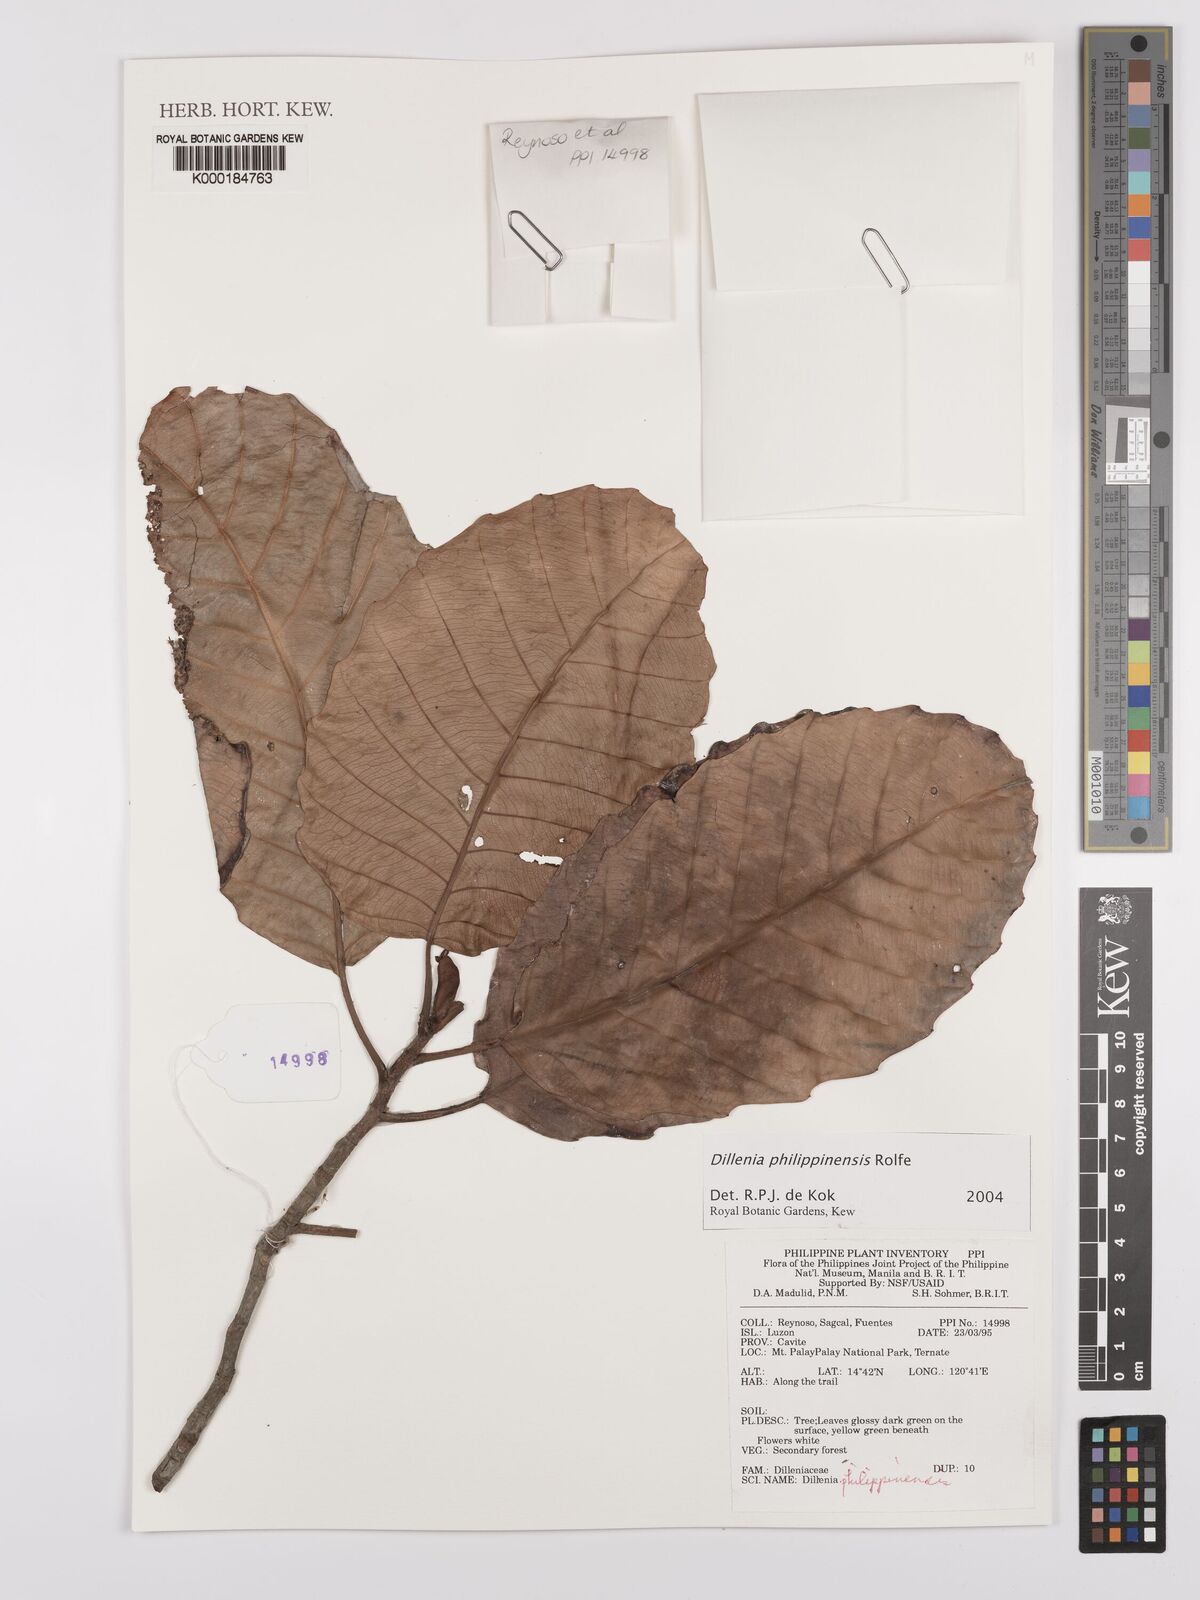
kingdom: Plantae
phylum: Tracheophyta
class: Magnoliopsida
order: Dilleniales
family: Dilleniaceae
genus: Dillenia
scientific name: Dillenia philippinensis
